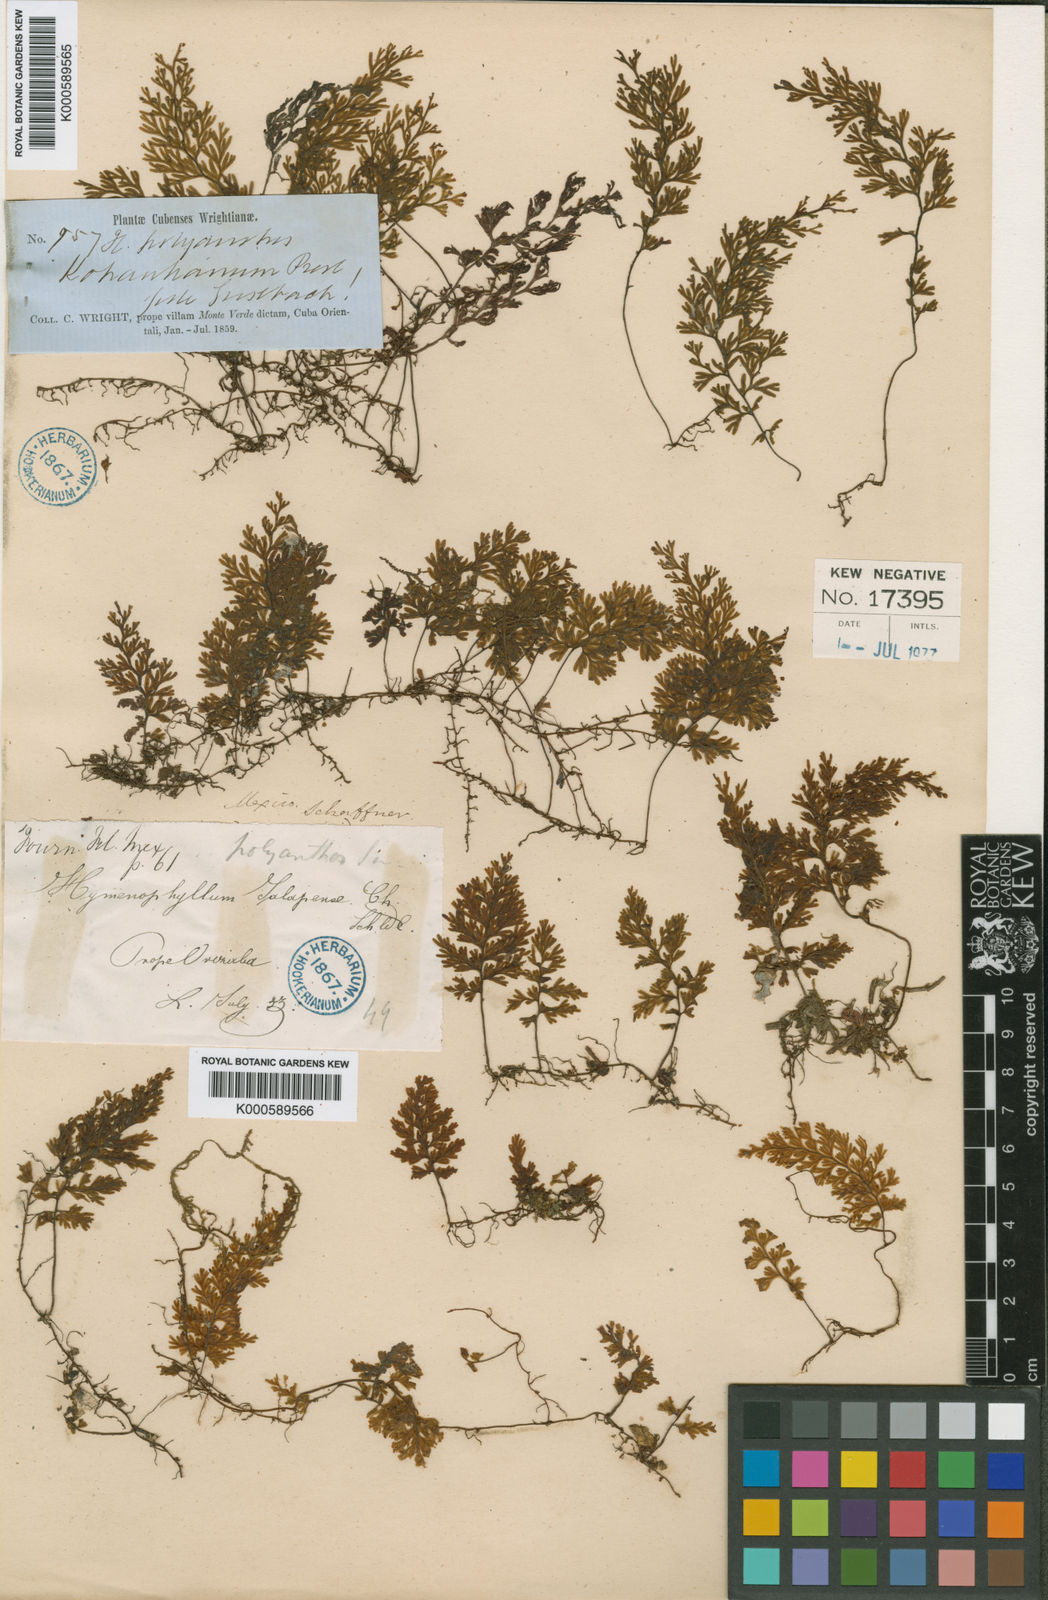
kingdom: Plantae
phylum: Tracheophyta
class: Polypodiopsida
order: Hymenophyllales
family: Hymenophyllaceae
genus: Hymenophyllum
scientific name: Hymenophyllum polyanthos
